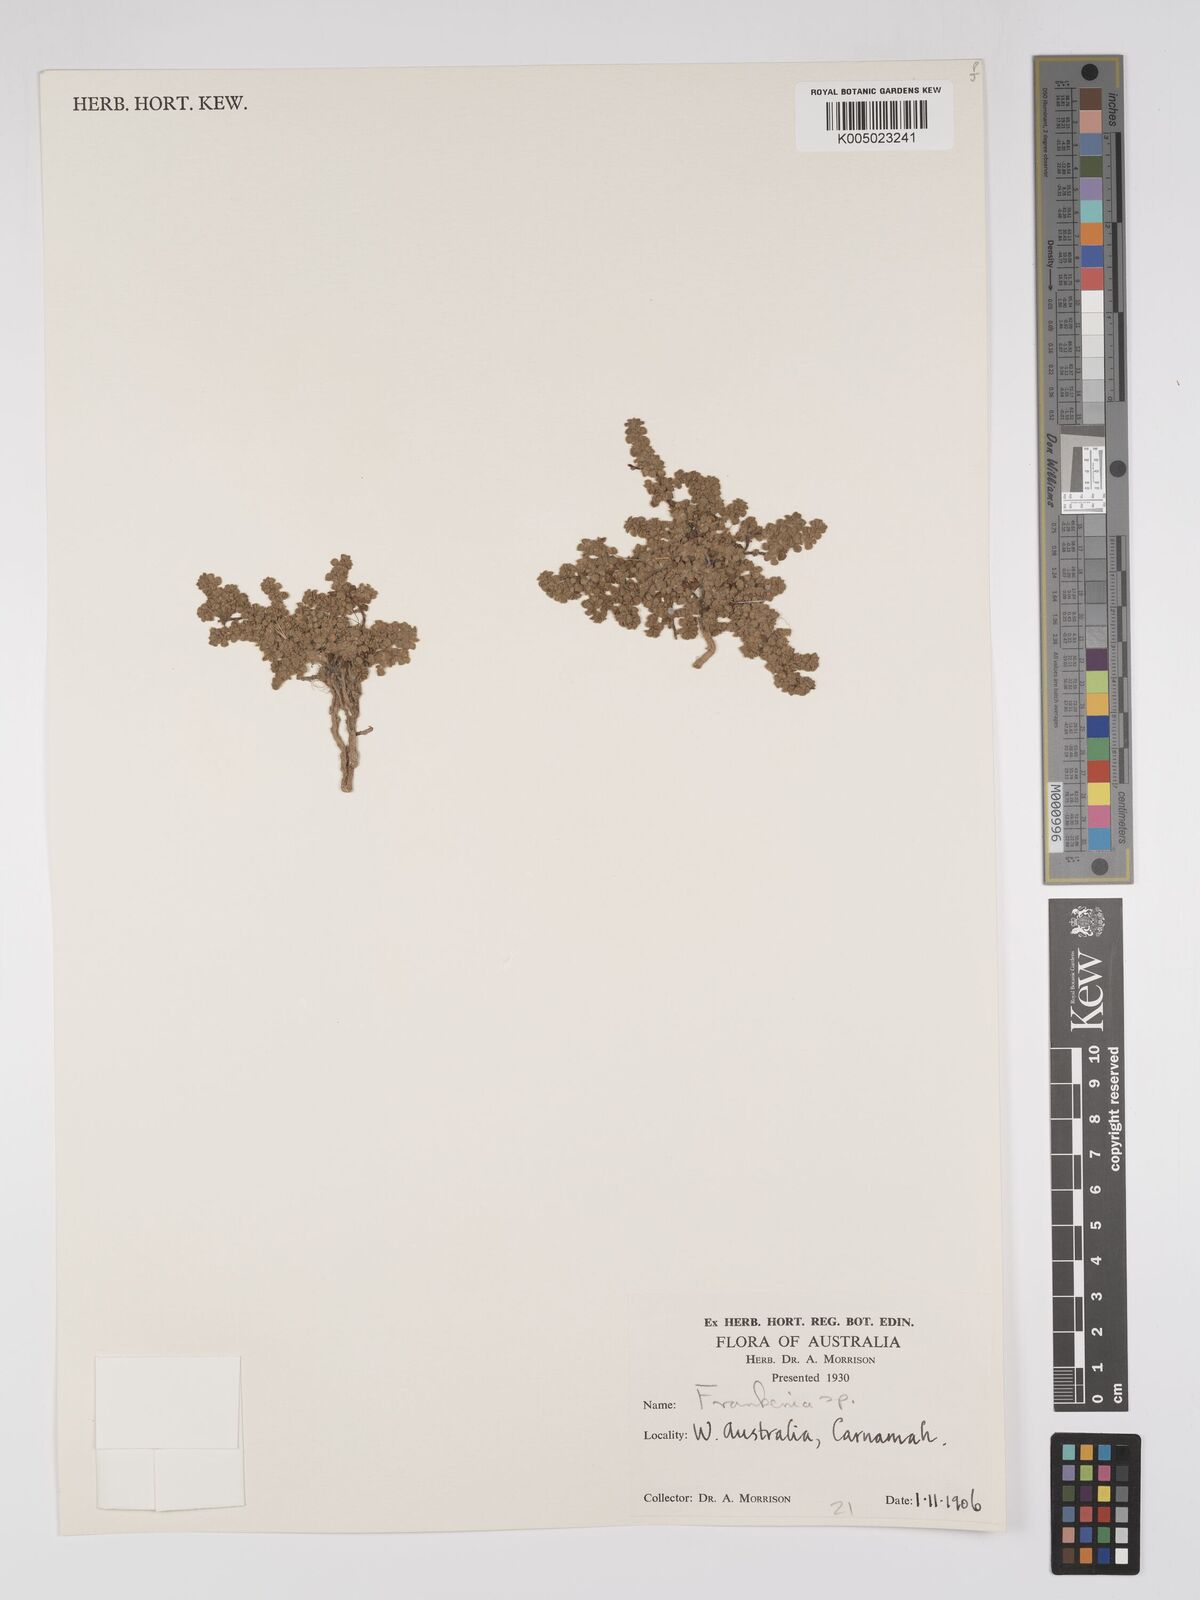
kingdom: Plantae
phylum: Tracheophyta
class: Magnoliopsida
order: Caryophyllales
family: Frankeniaceae
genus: Frankenia
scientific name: Frankenia
